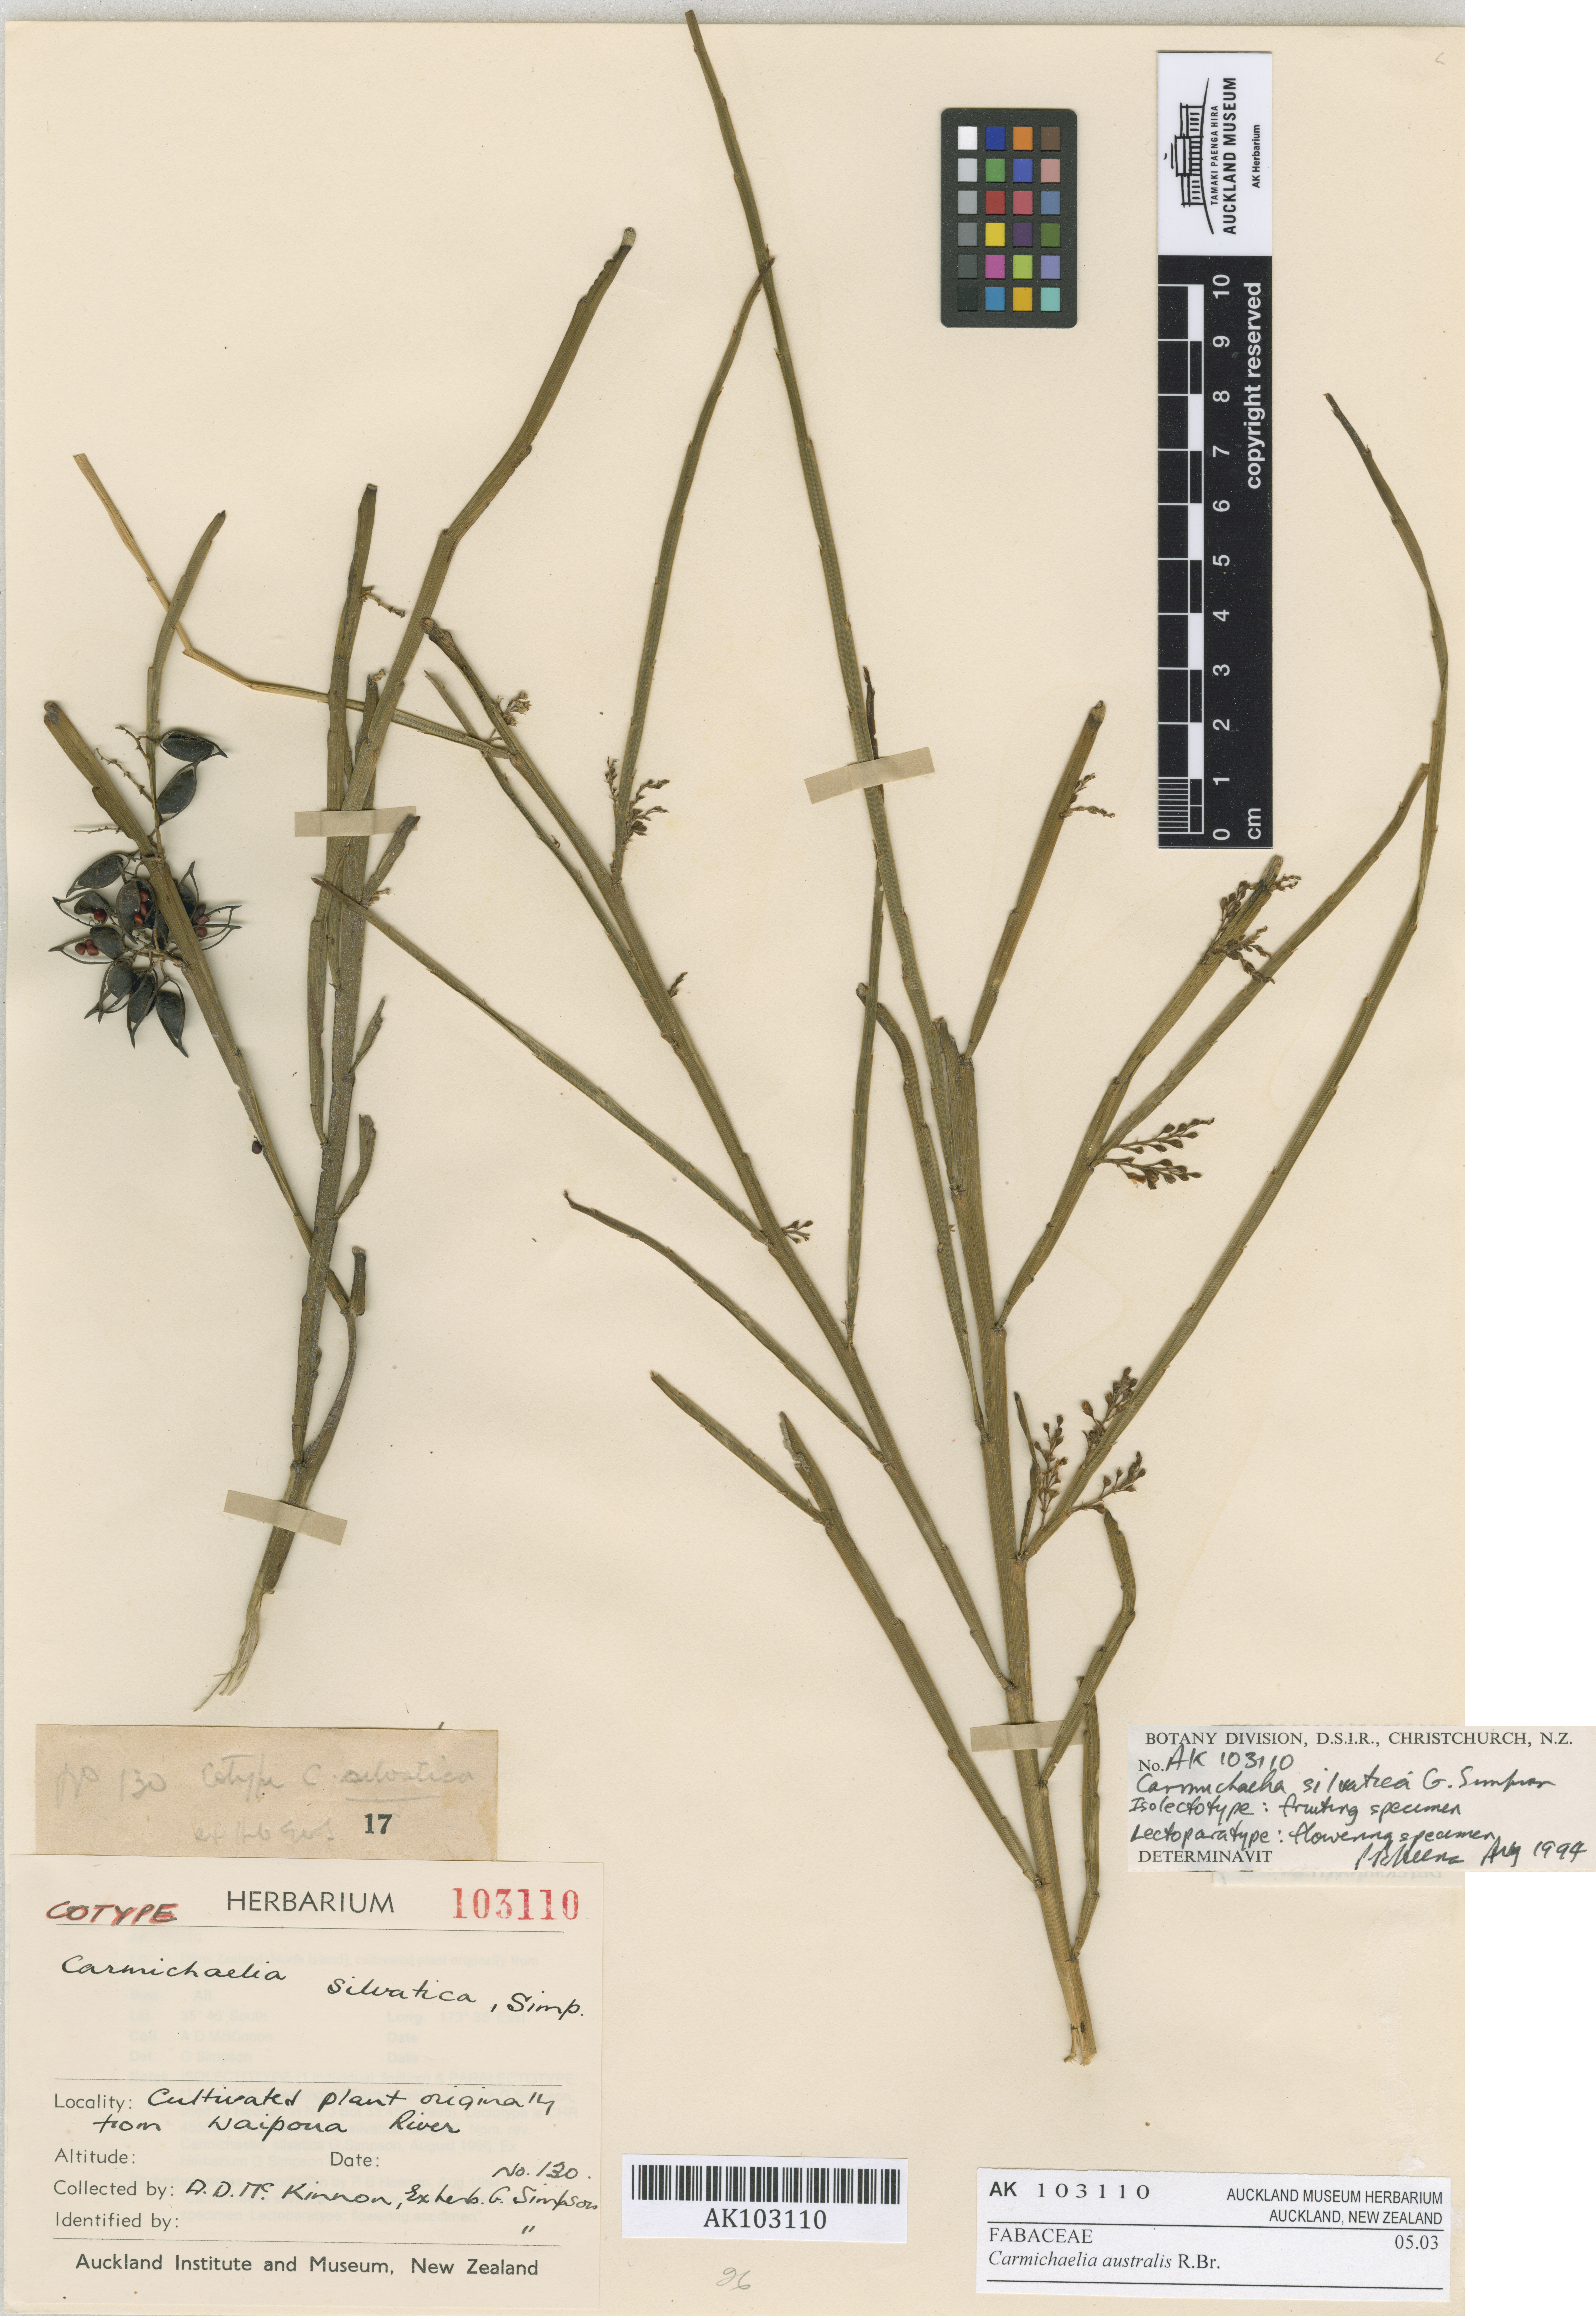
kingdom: Plantae
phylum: Tracheophyta
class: Magnoliopsida
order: Fabales
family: Fabaceae
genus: Carmichaelia
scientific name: Carmichaelia australis
